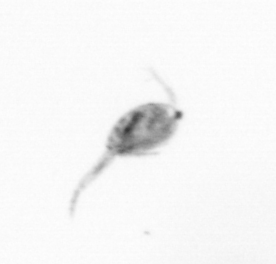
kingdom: Animalia
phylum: Arthropoda
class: Copepoda
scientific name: Copepoda
